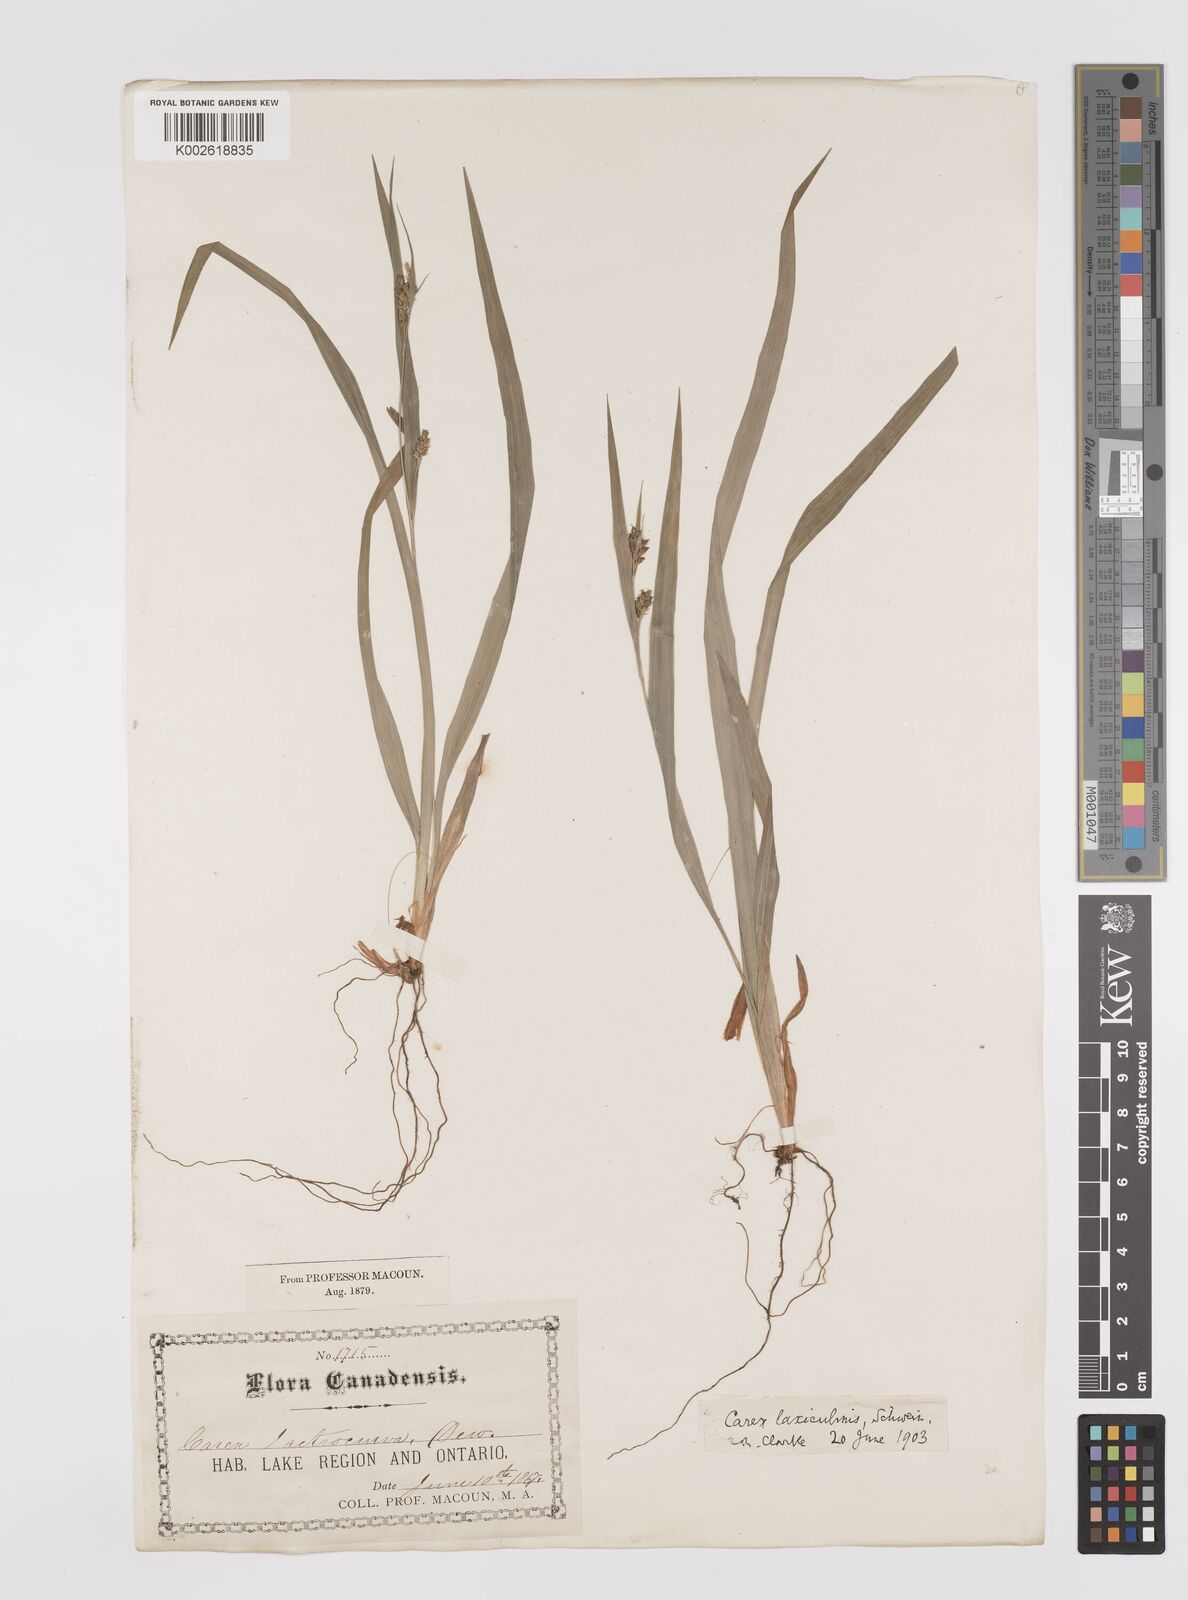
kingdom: Plantae
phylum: Tracheophyta
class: Liliopsida
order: Poales
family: Cyperaceae
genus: Carex
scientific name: Carex laxiculmis
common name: Spreading sedge
